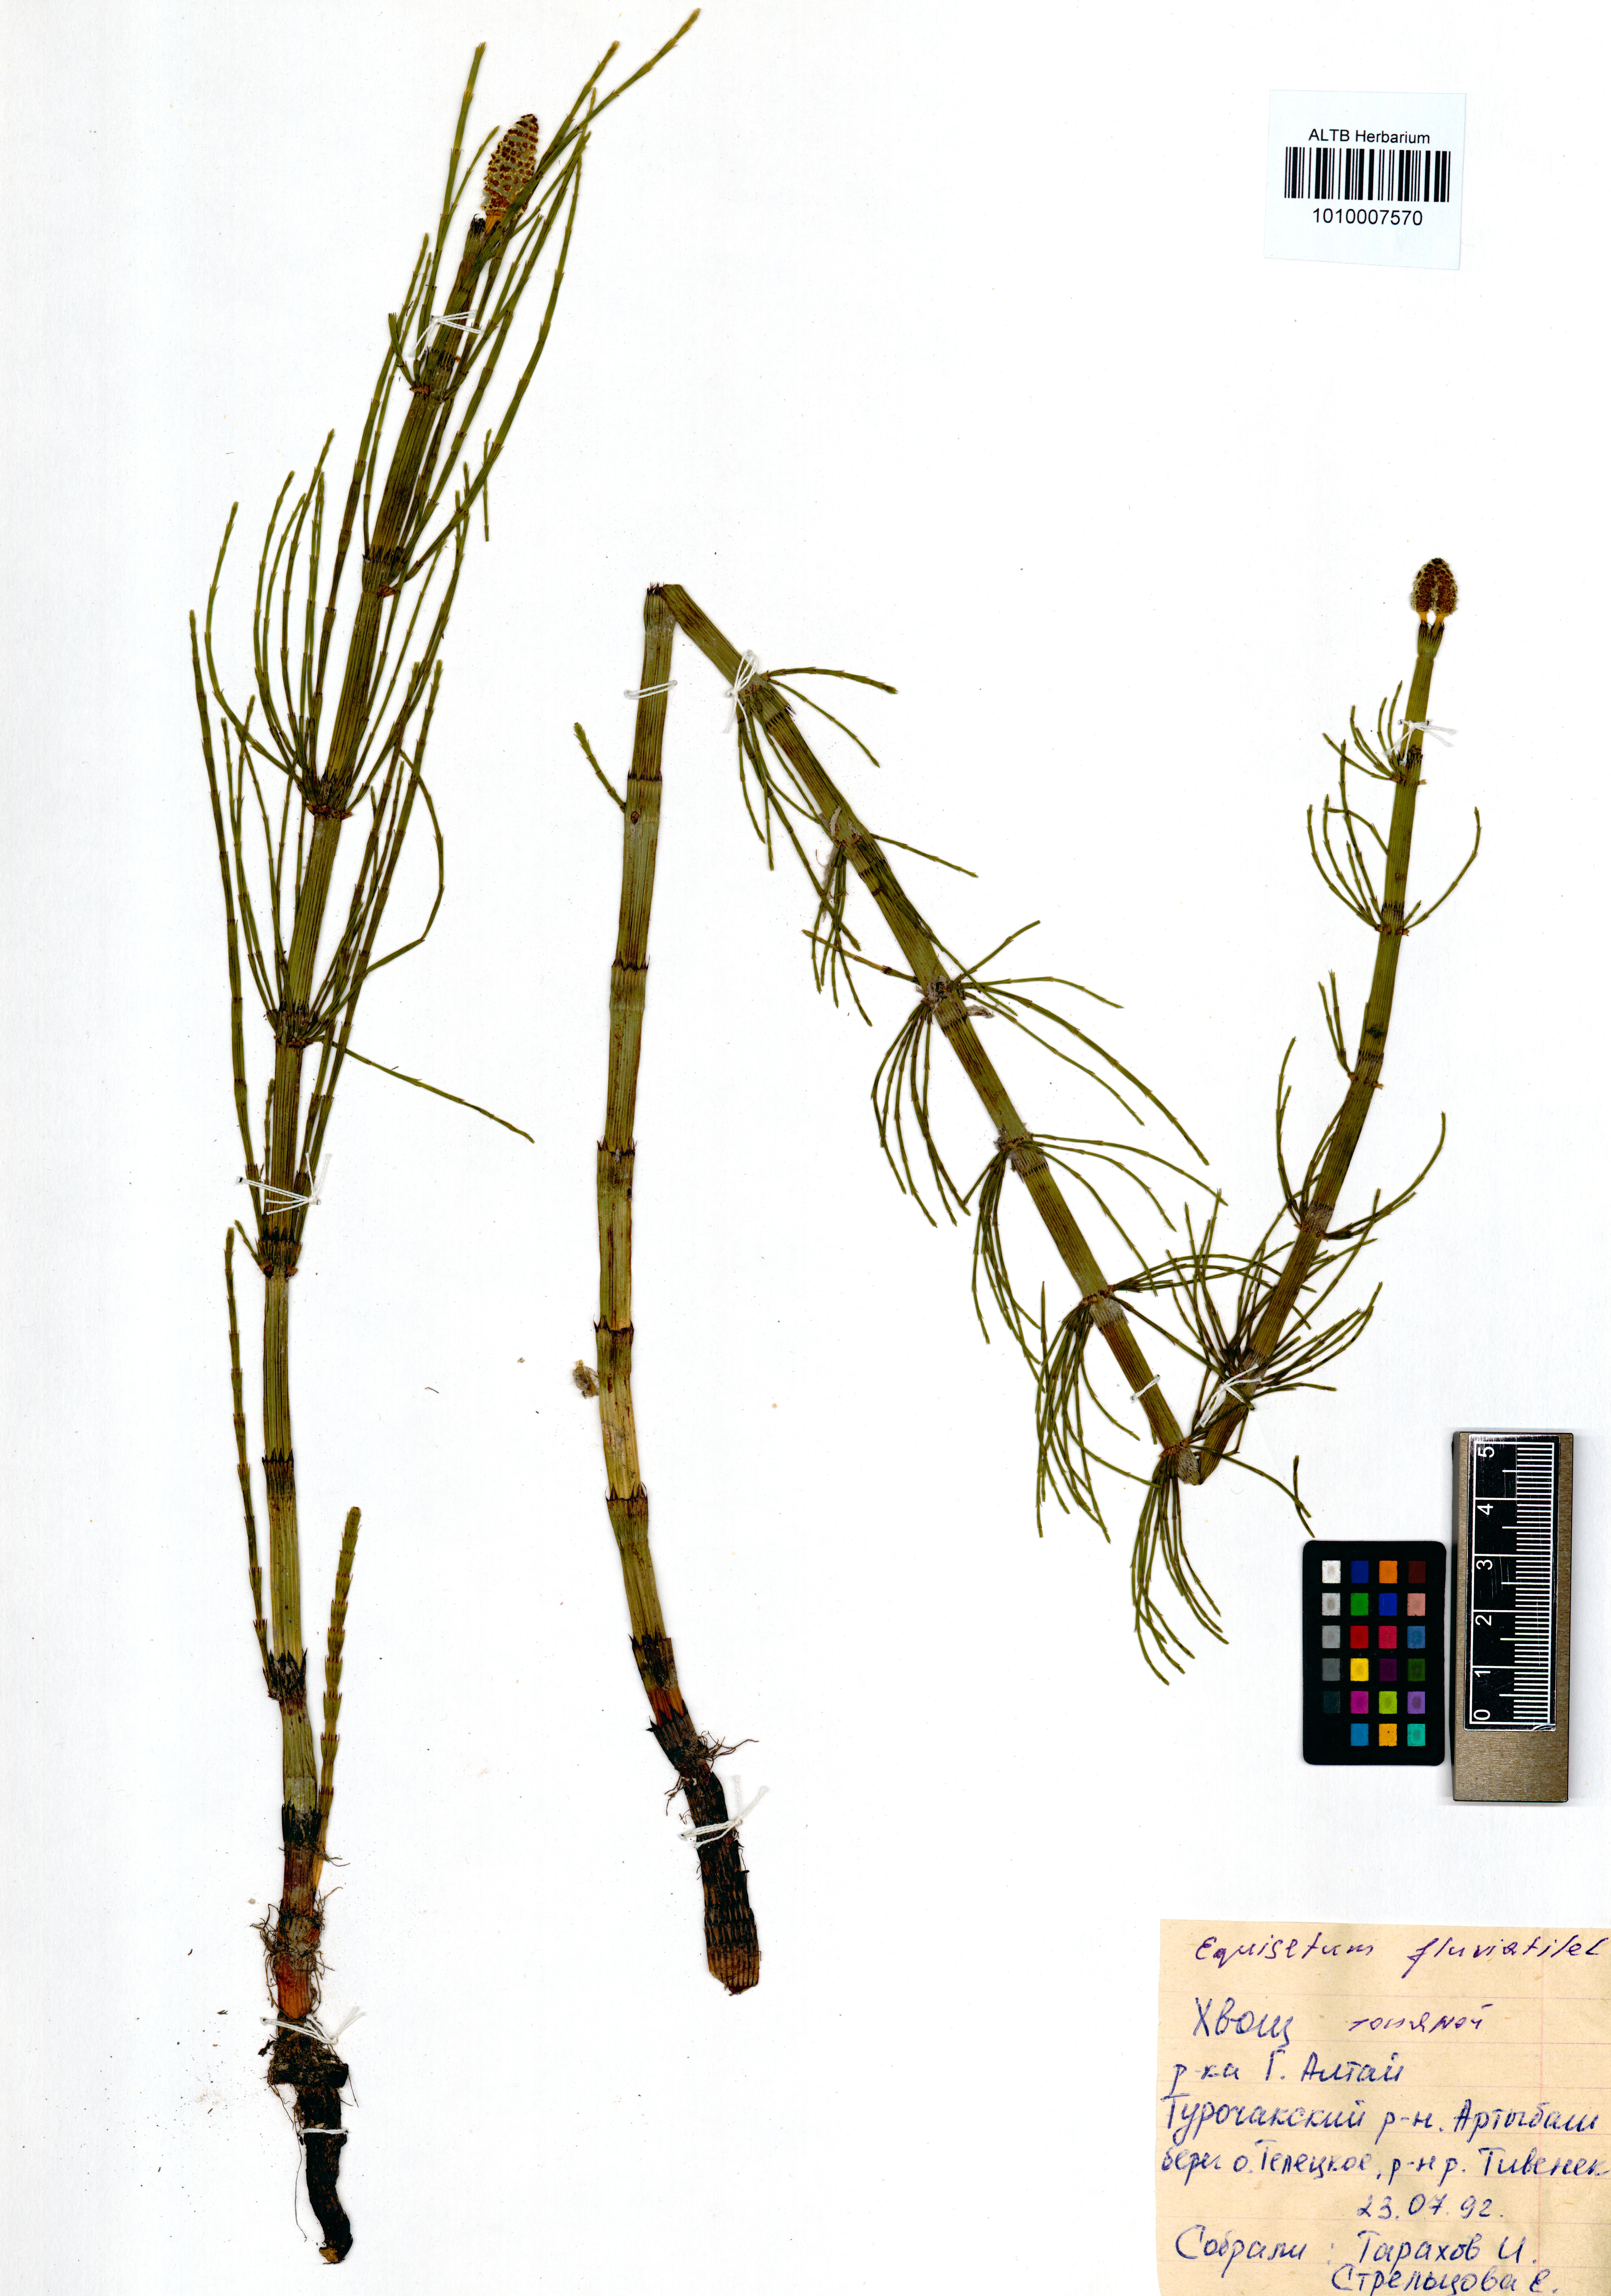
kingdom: Plantae
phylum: Tracheophyta
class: Polypodiopsida
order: Equisetales
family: Equisetaceae
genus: Equisetum
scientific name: Equisetum fluviatile
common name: Water horsetail
